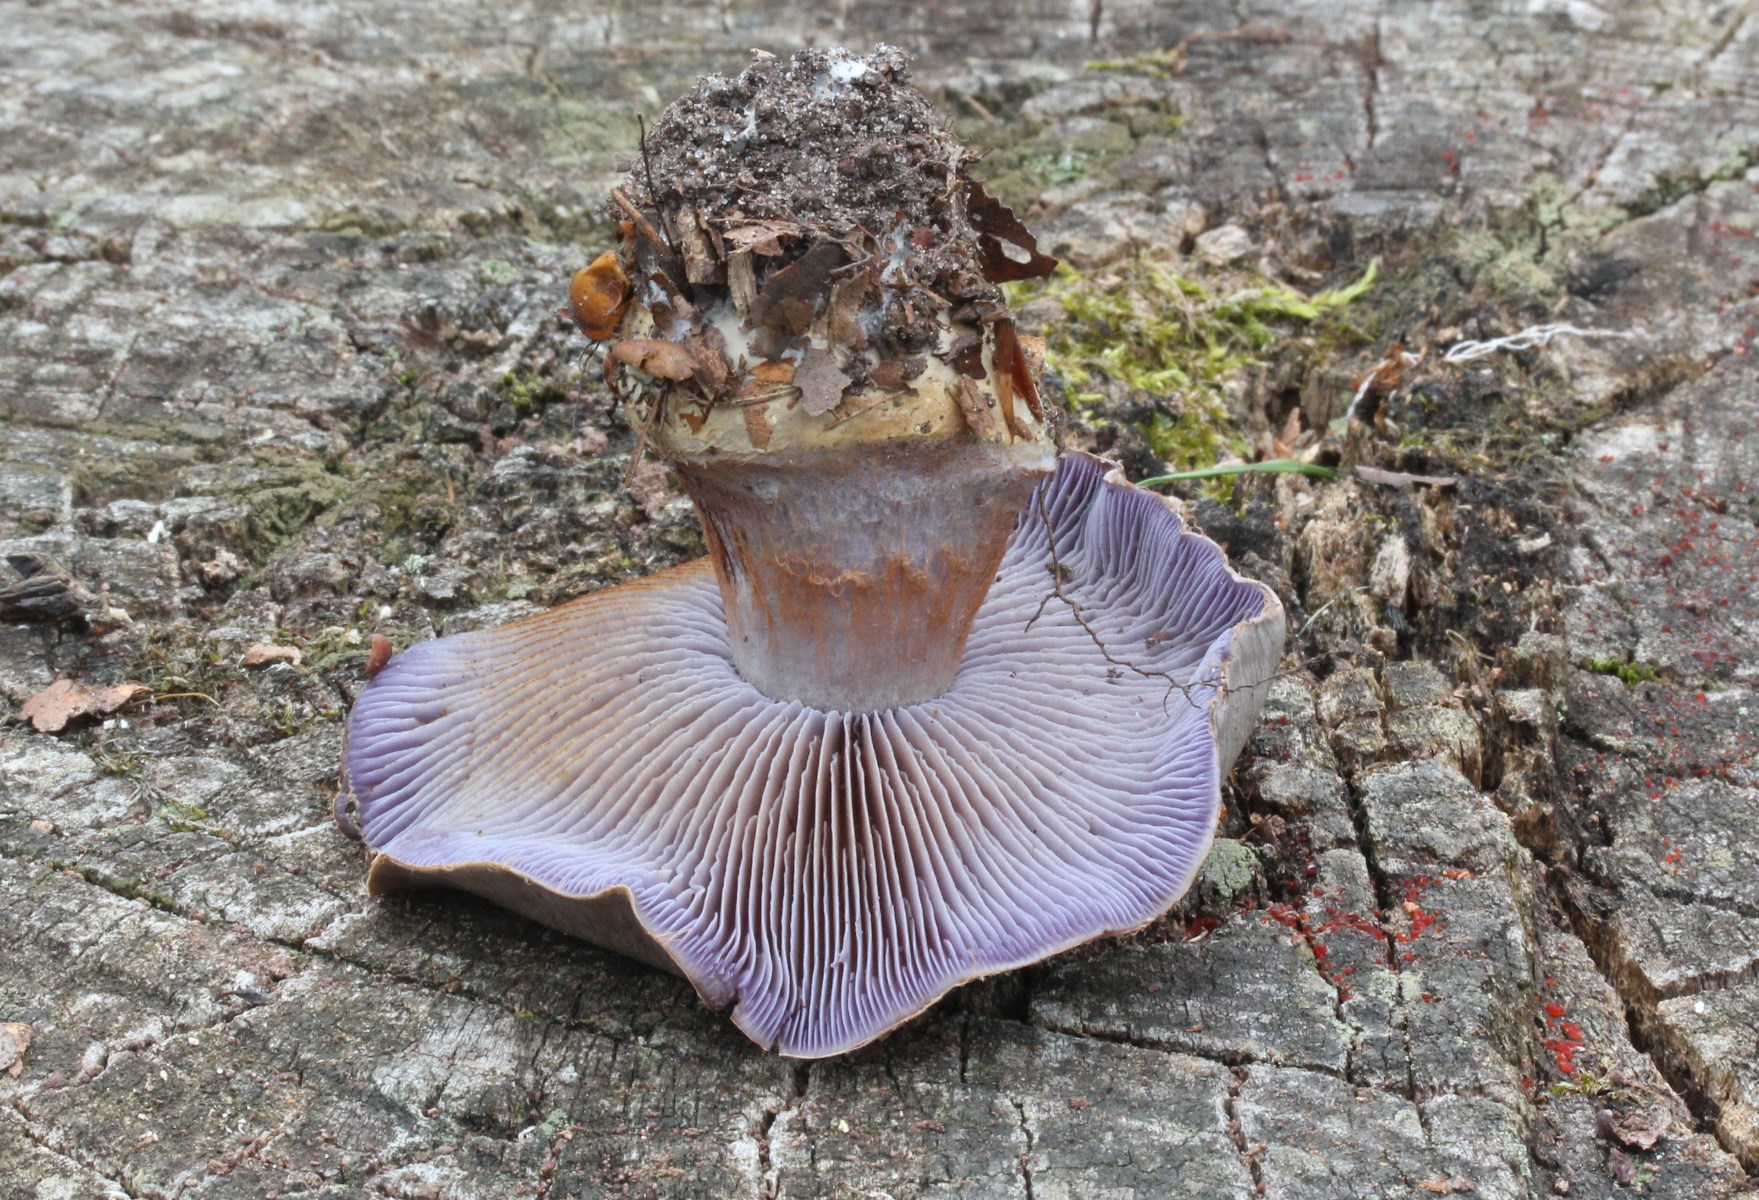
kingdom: Fungi
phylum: Basidiomycota
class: Agaricomycetes
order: Agaricales
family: Cortinariaceae
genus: Phlegmacium
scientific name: Phlegmacium luhmannii
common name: musegrå slørhat
